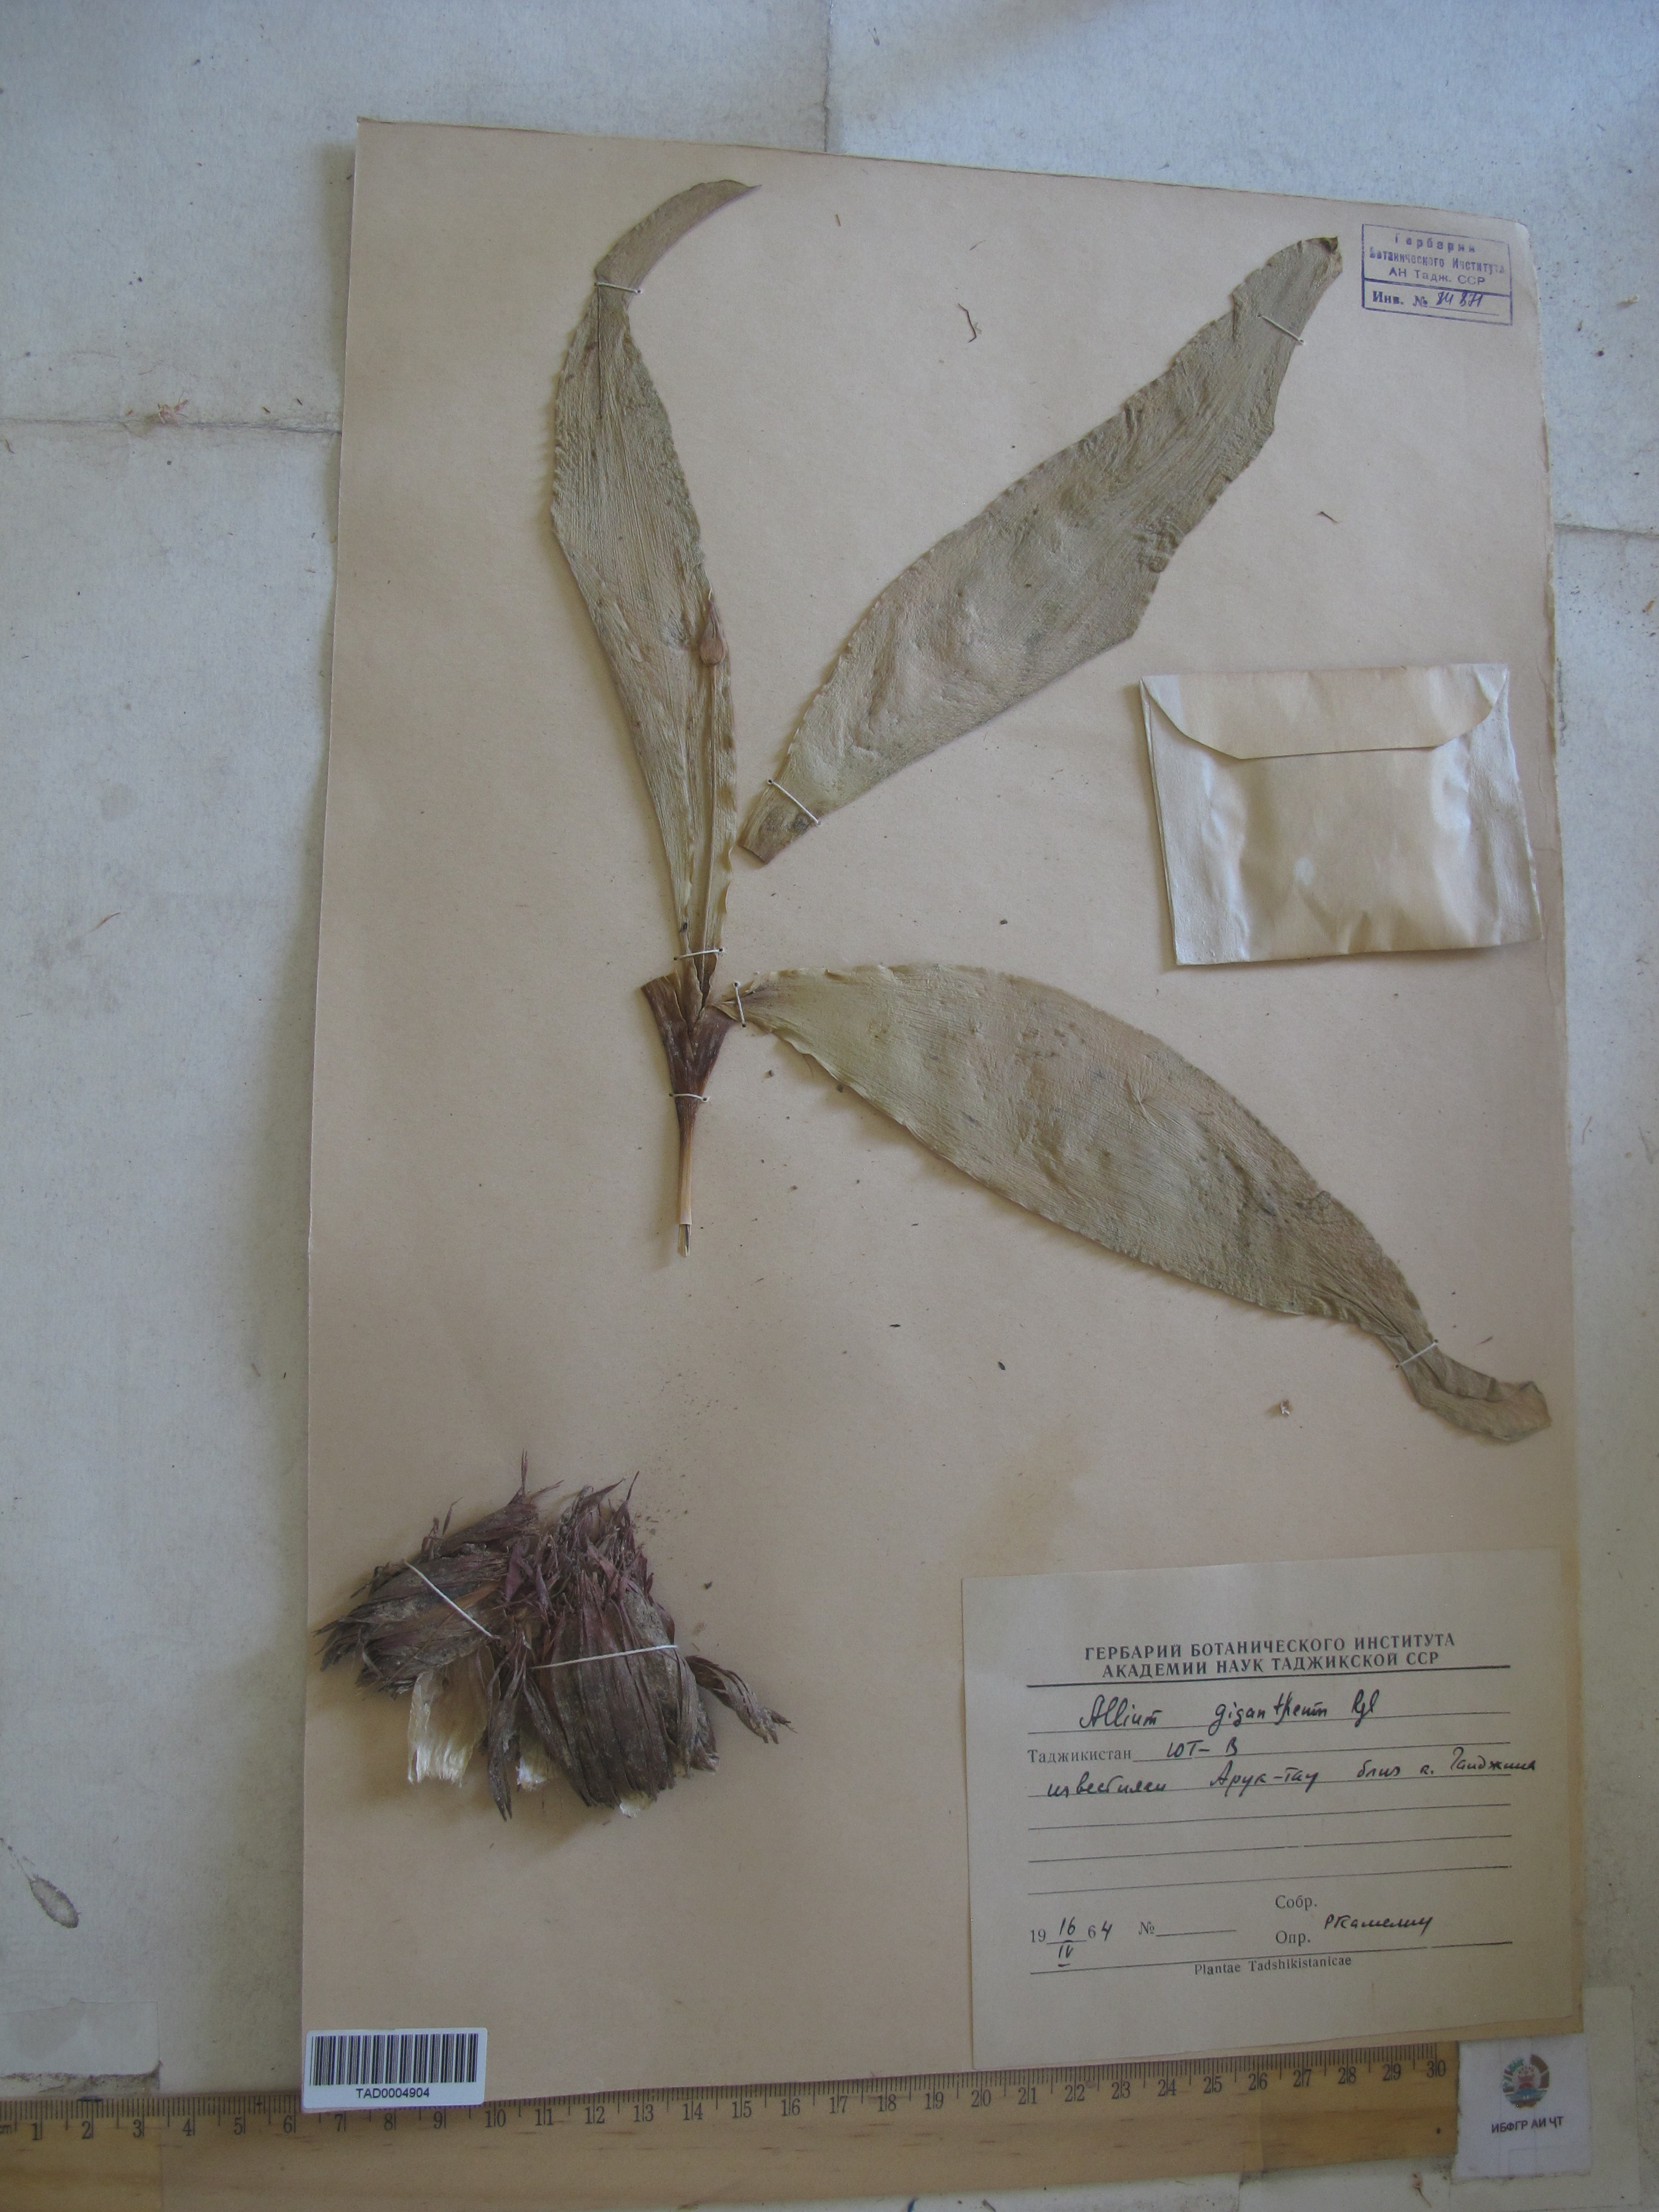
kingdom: Plantae
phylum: Tracheophyta
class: Liliopsida
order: Asparagales
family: Amaryllidaceae
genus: Allium
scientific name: Allium giganteum
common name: Giant onion
